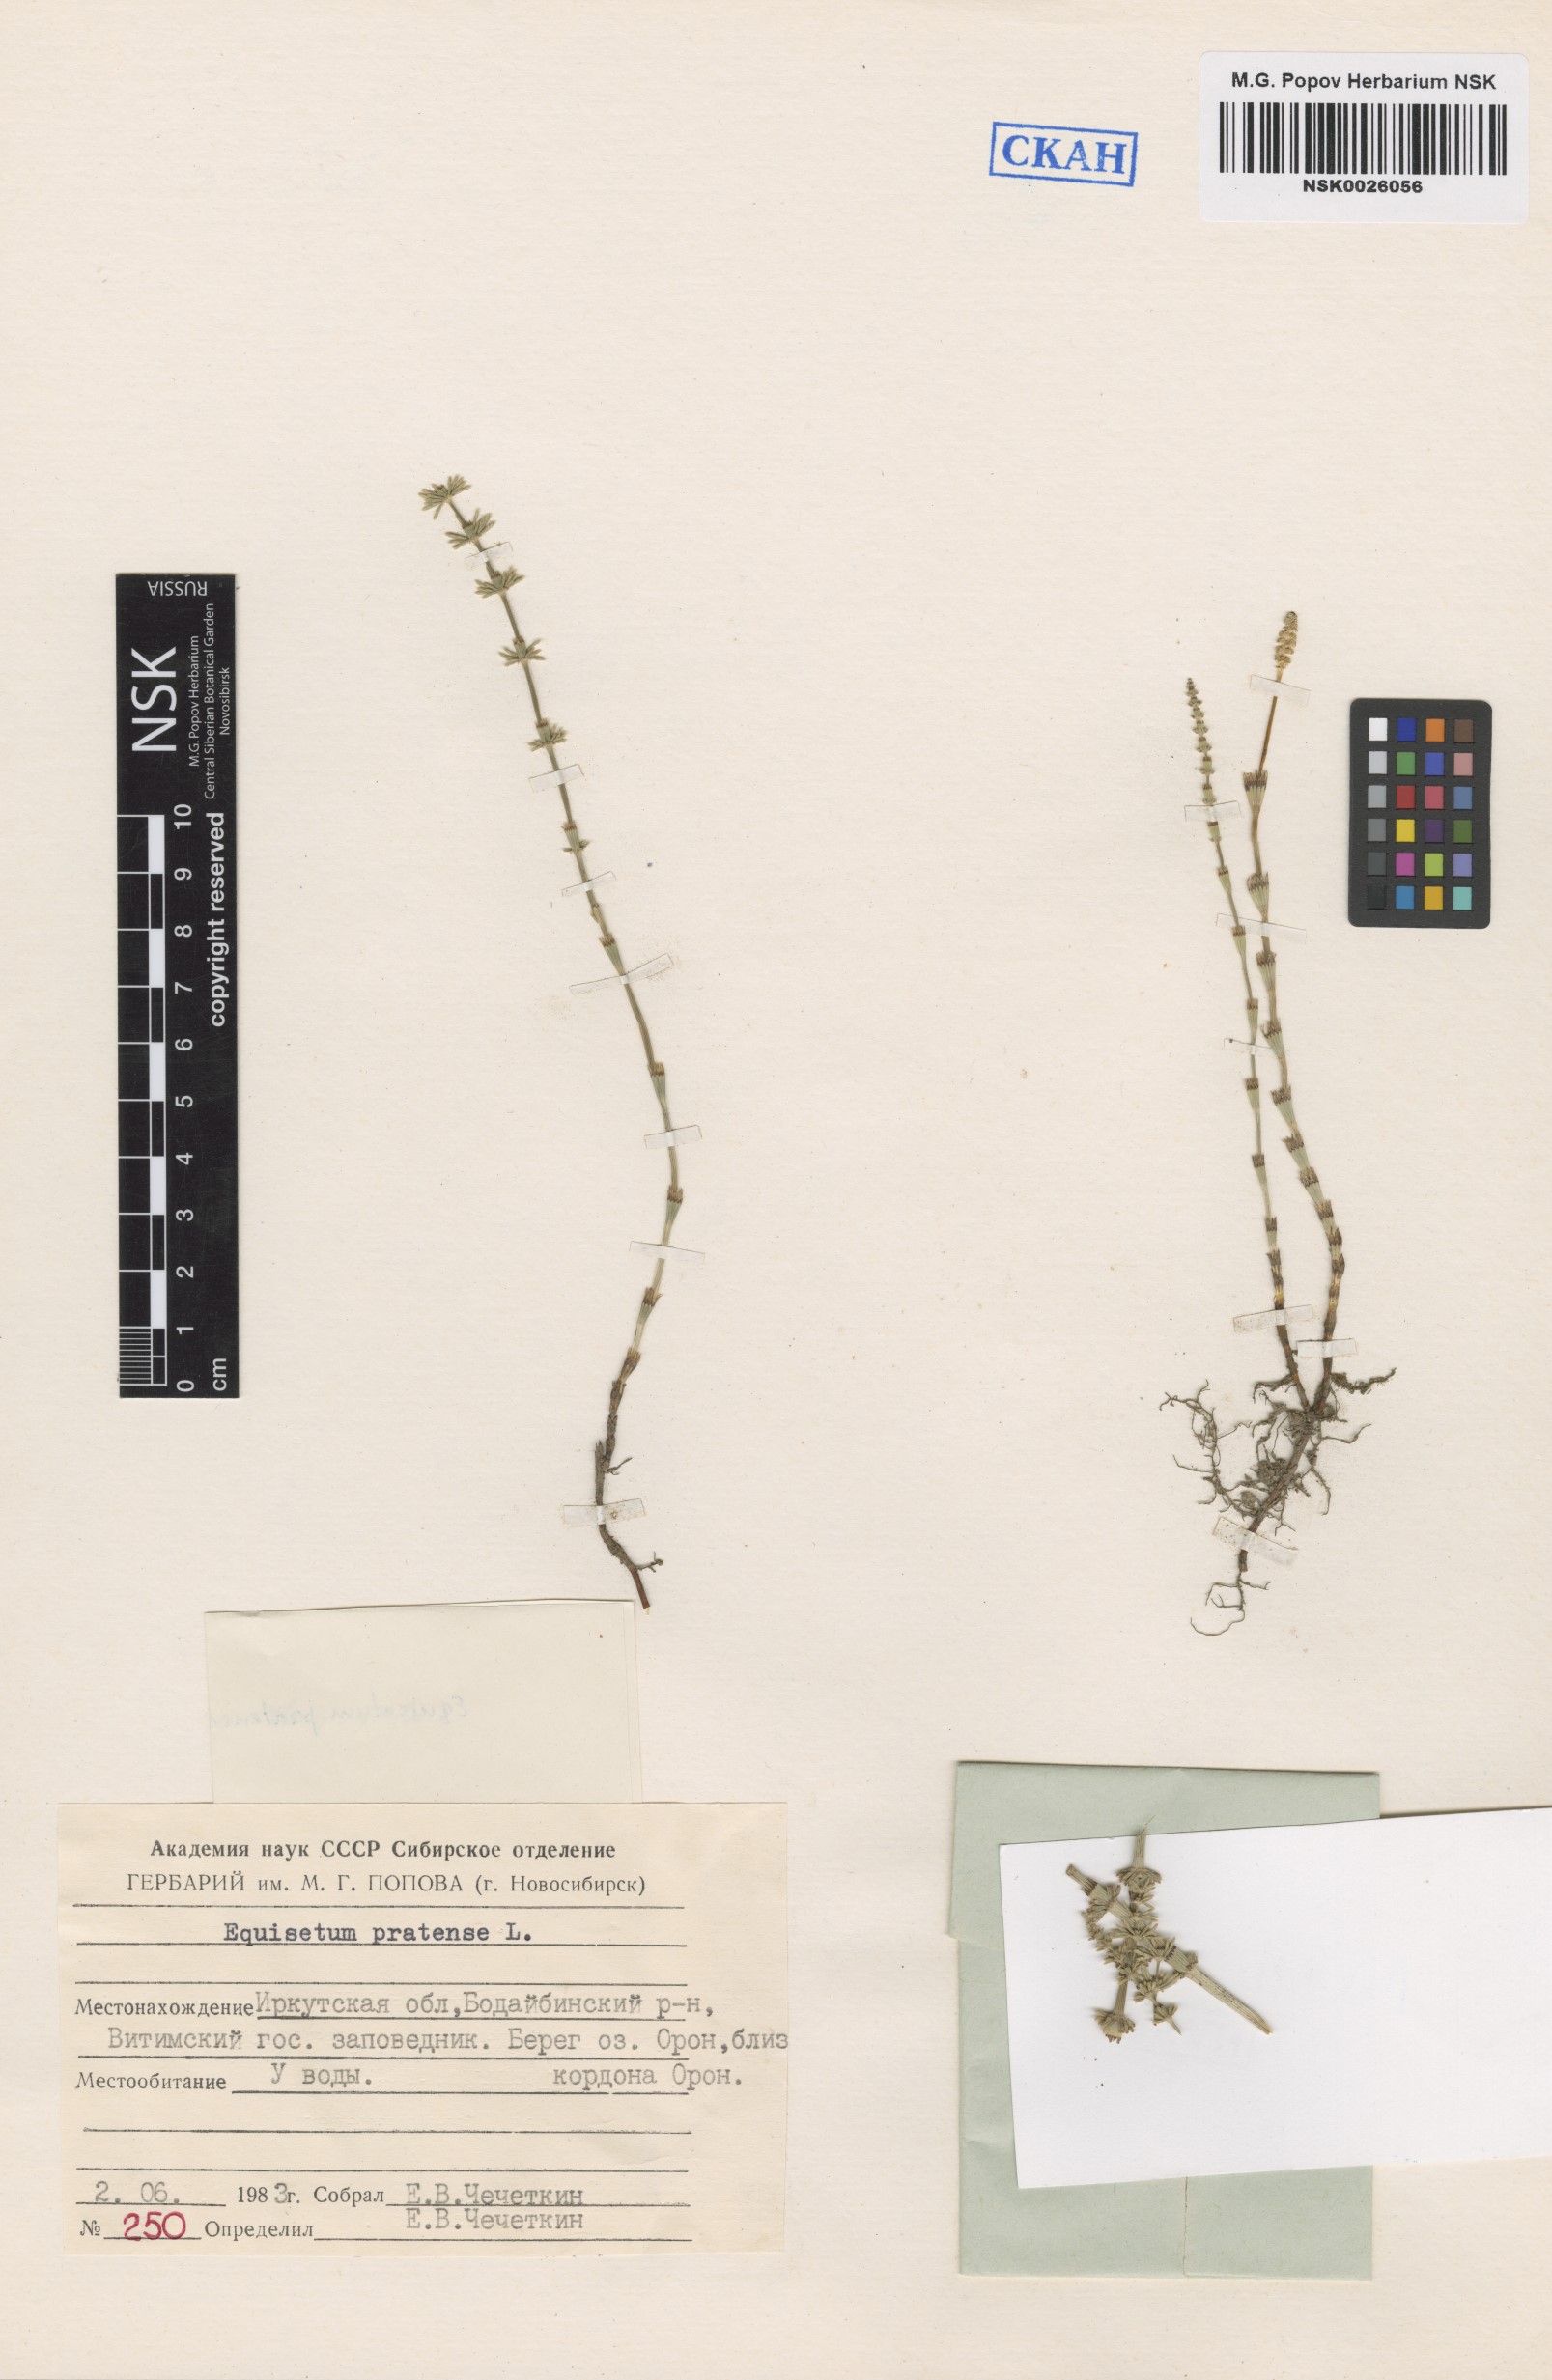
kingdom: Plantae
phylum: Tracheophyta
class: Polypodiopsida
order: Equisetales
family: Equisetaceae
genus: Equisetum
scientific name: Equisetum pratense
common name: Meadow horsetail
